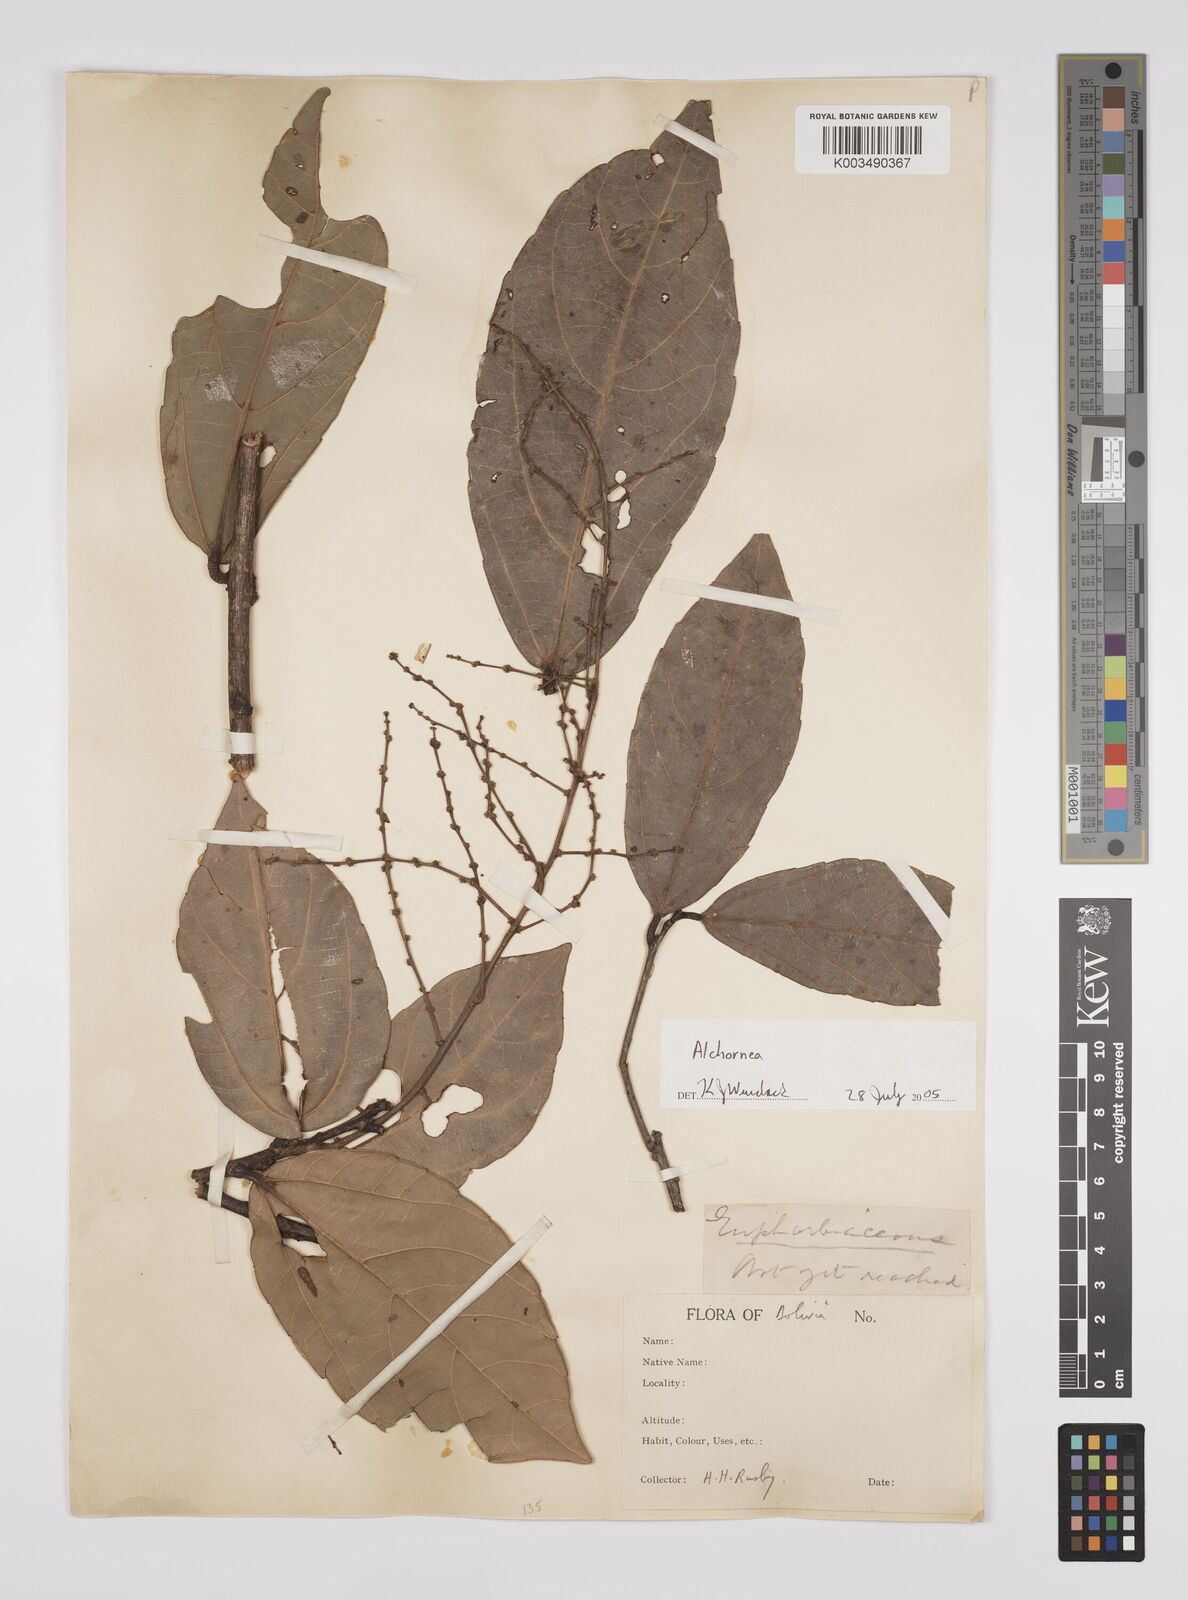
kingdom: Plantae
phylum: Tracheophyta
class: Magnoliopsida
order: Malpighiales
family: Euphorbiaceae
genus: Alchornea
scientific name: Alchornea
